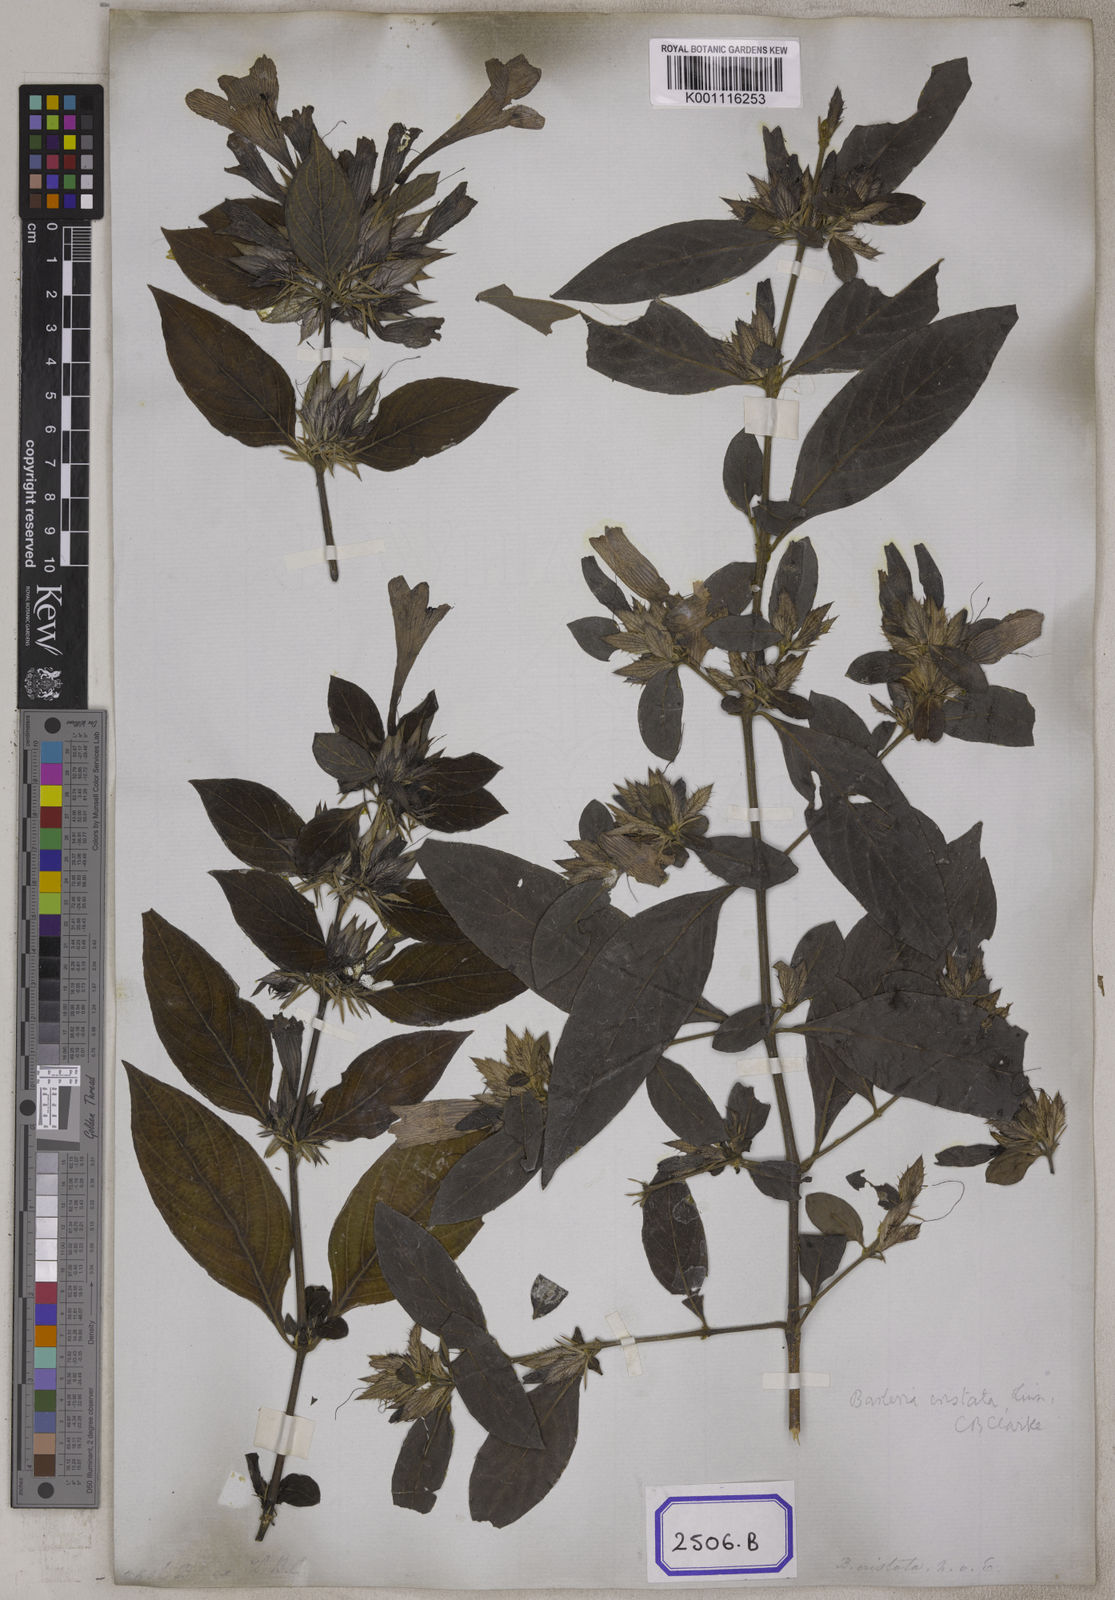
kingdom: Plantae
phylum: Tracheophyta
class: Magnoliopsida
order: Lamiales
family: Acanthaceae
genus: Barleria
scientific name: Barleria cristata
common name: Crested philippine violet
